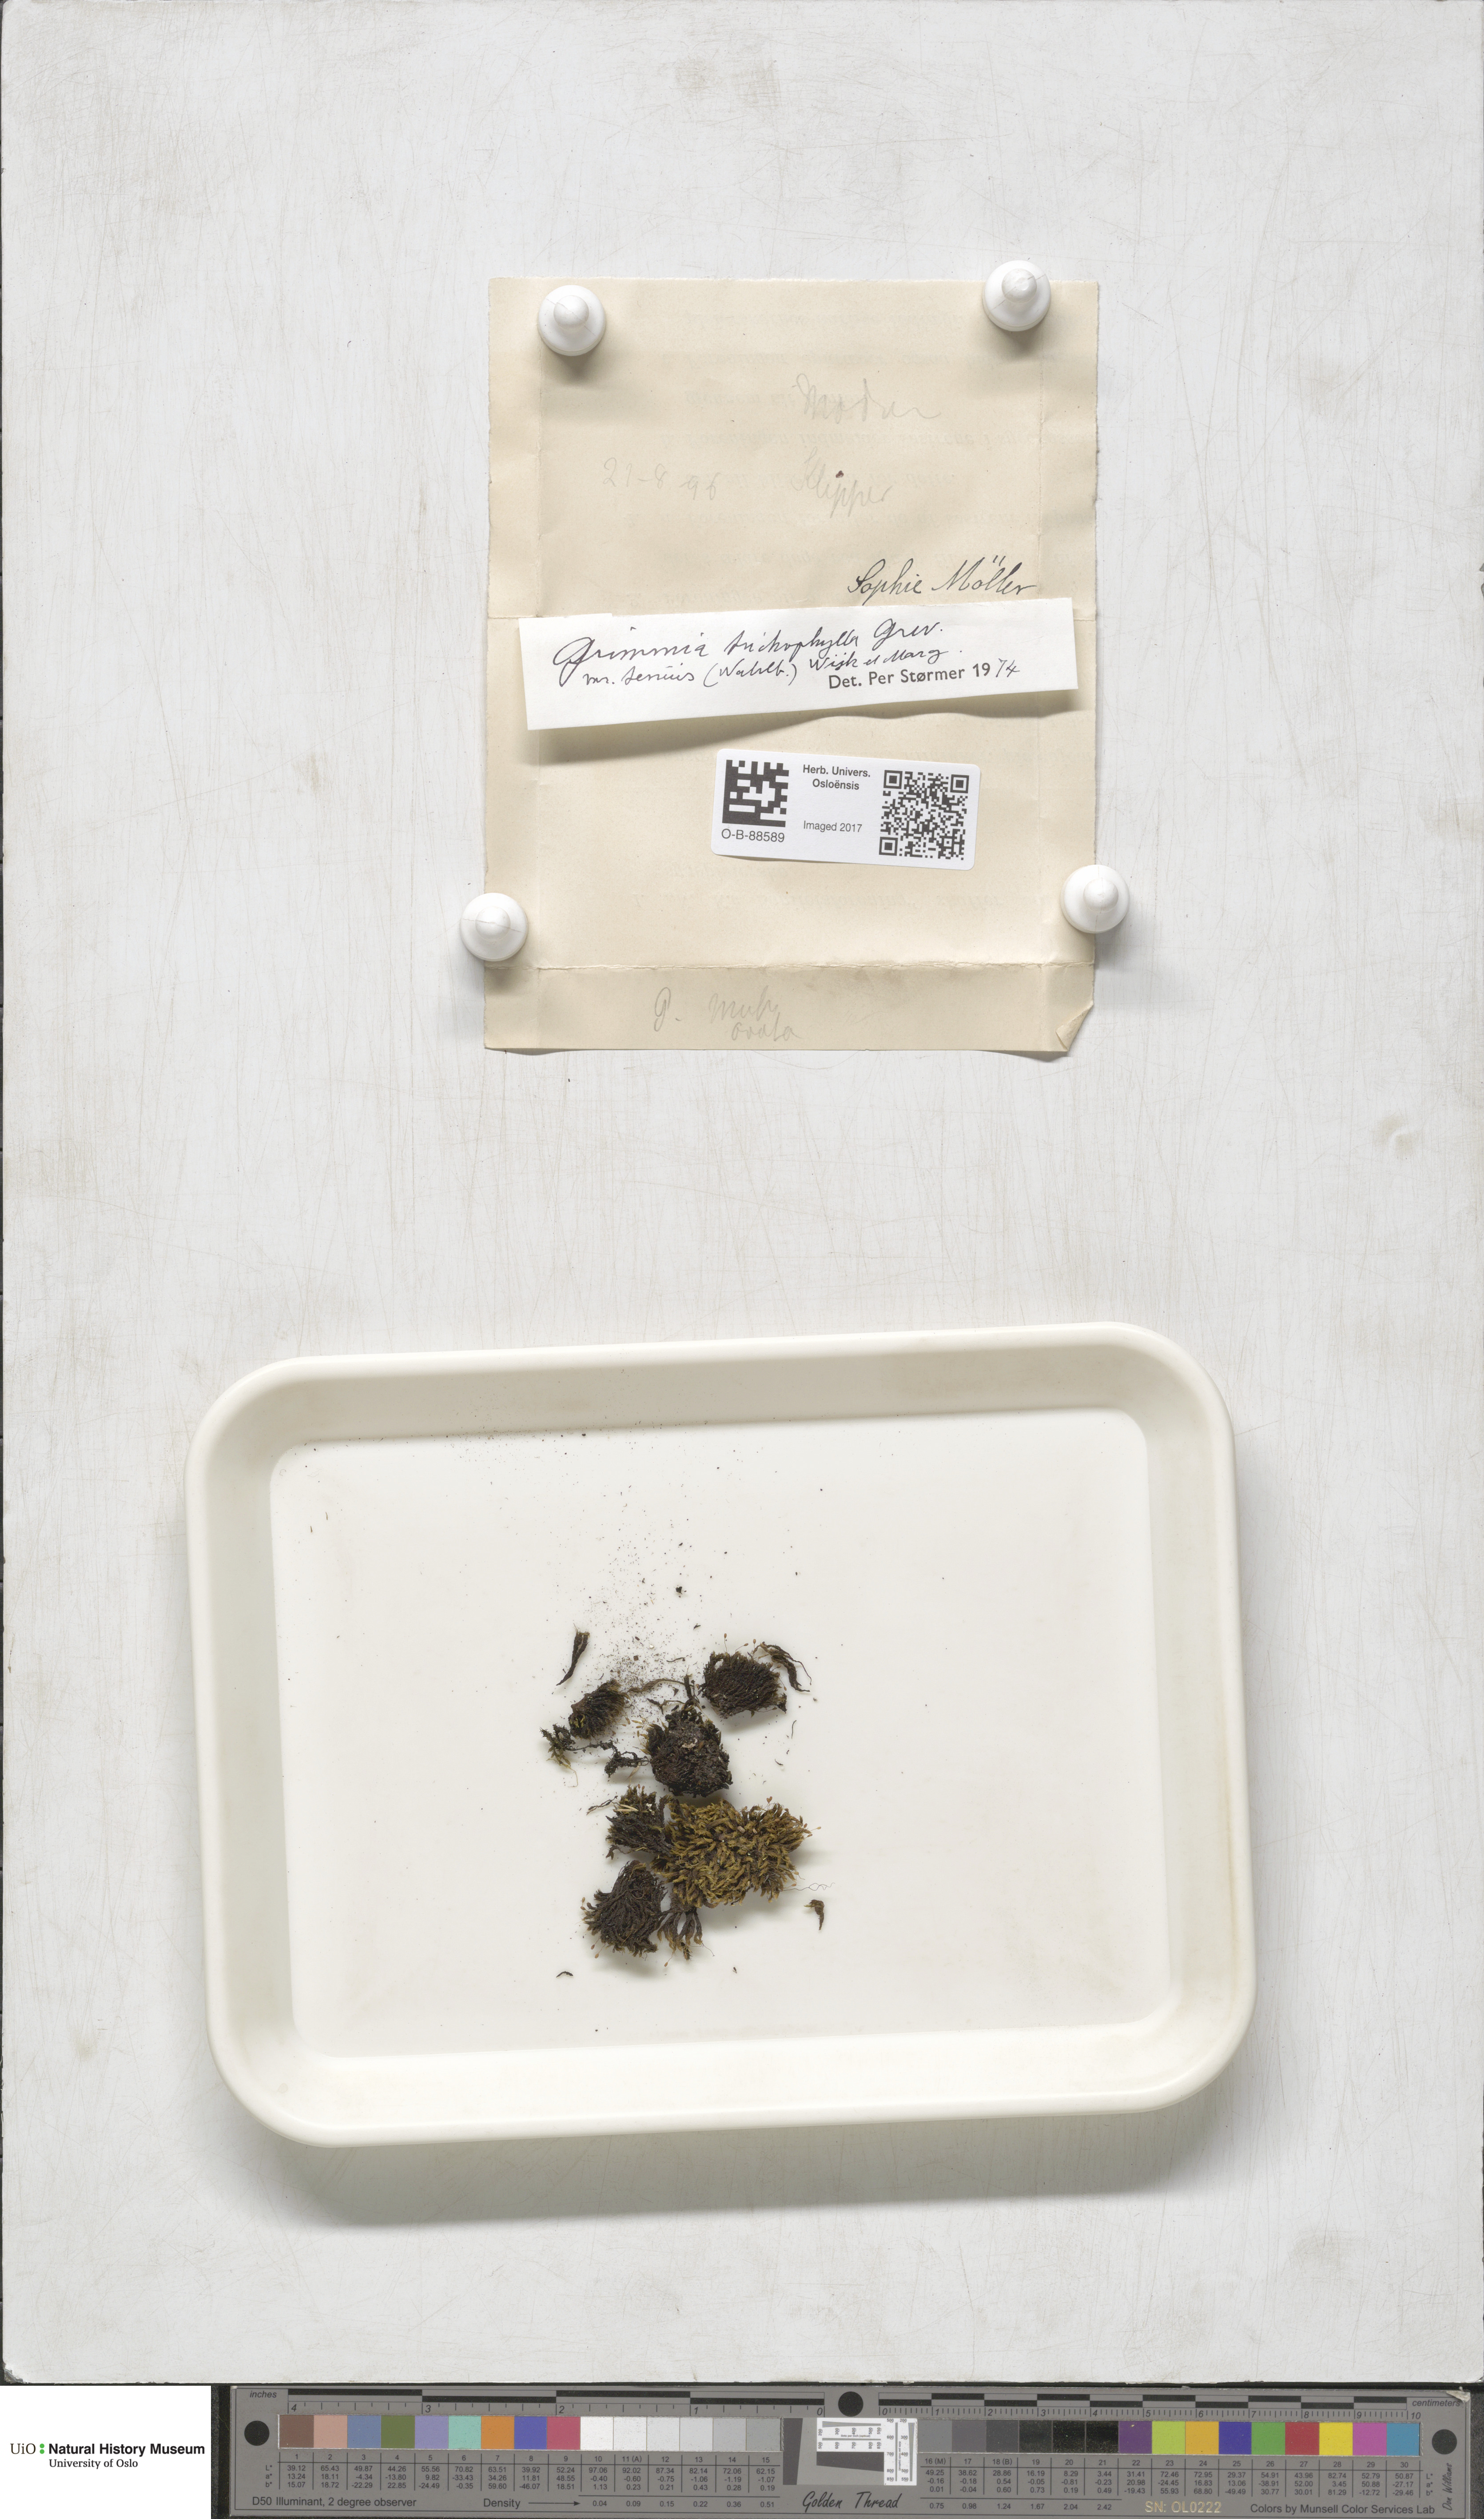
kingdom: Plantae
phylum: Bryophyta
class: Bryopsida
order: Grimmiales
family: Grimmiaceae
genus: Grimmia
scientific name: Grimmia trichophylla
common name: Hair-pointed grimmia
